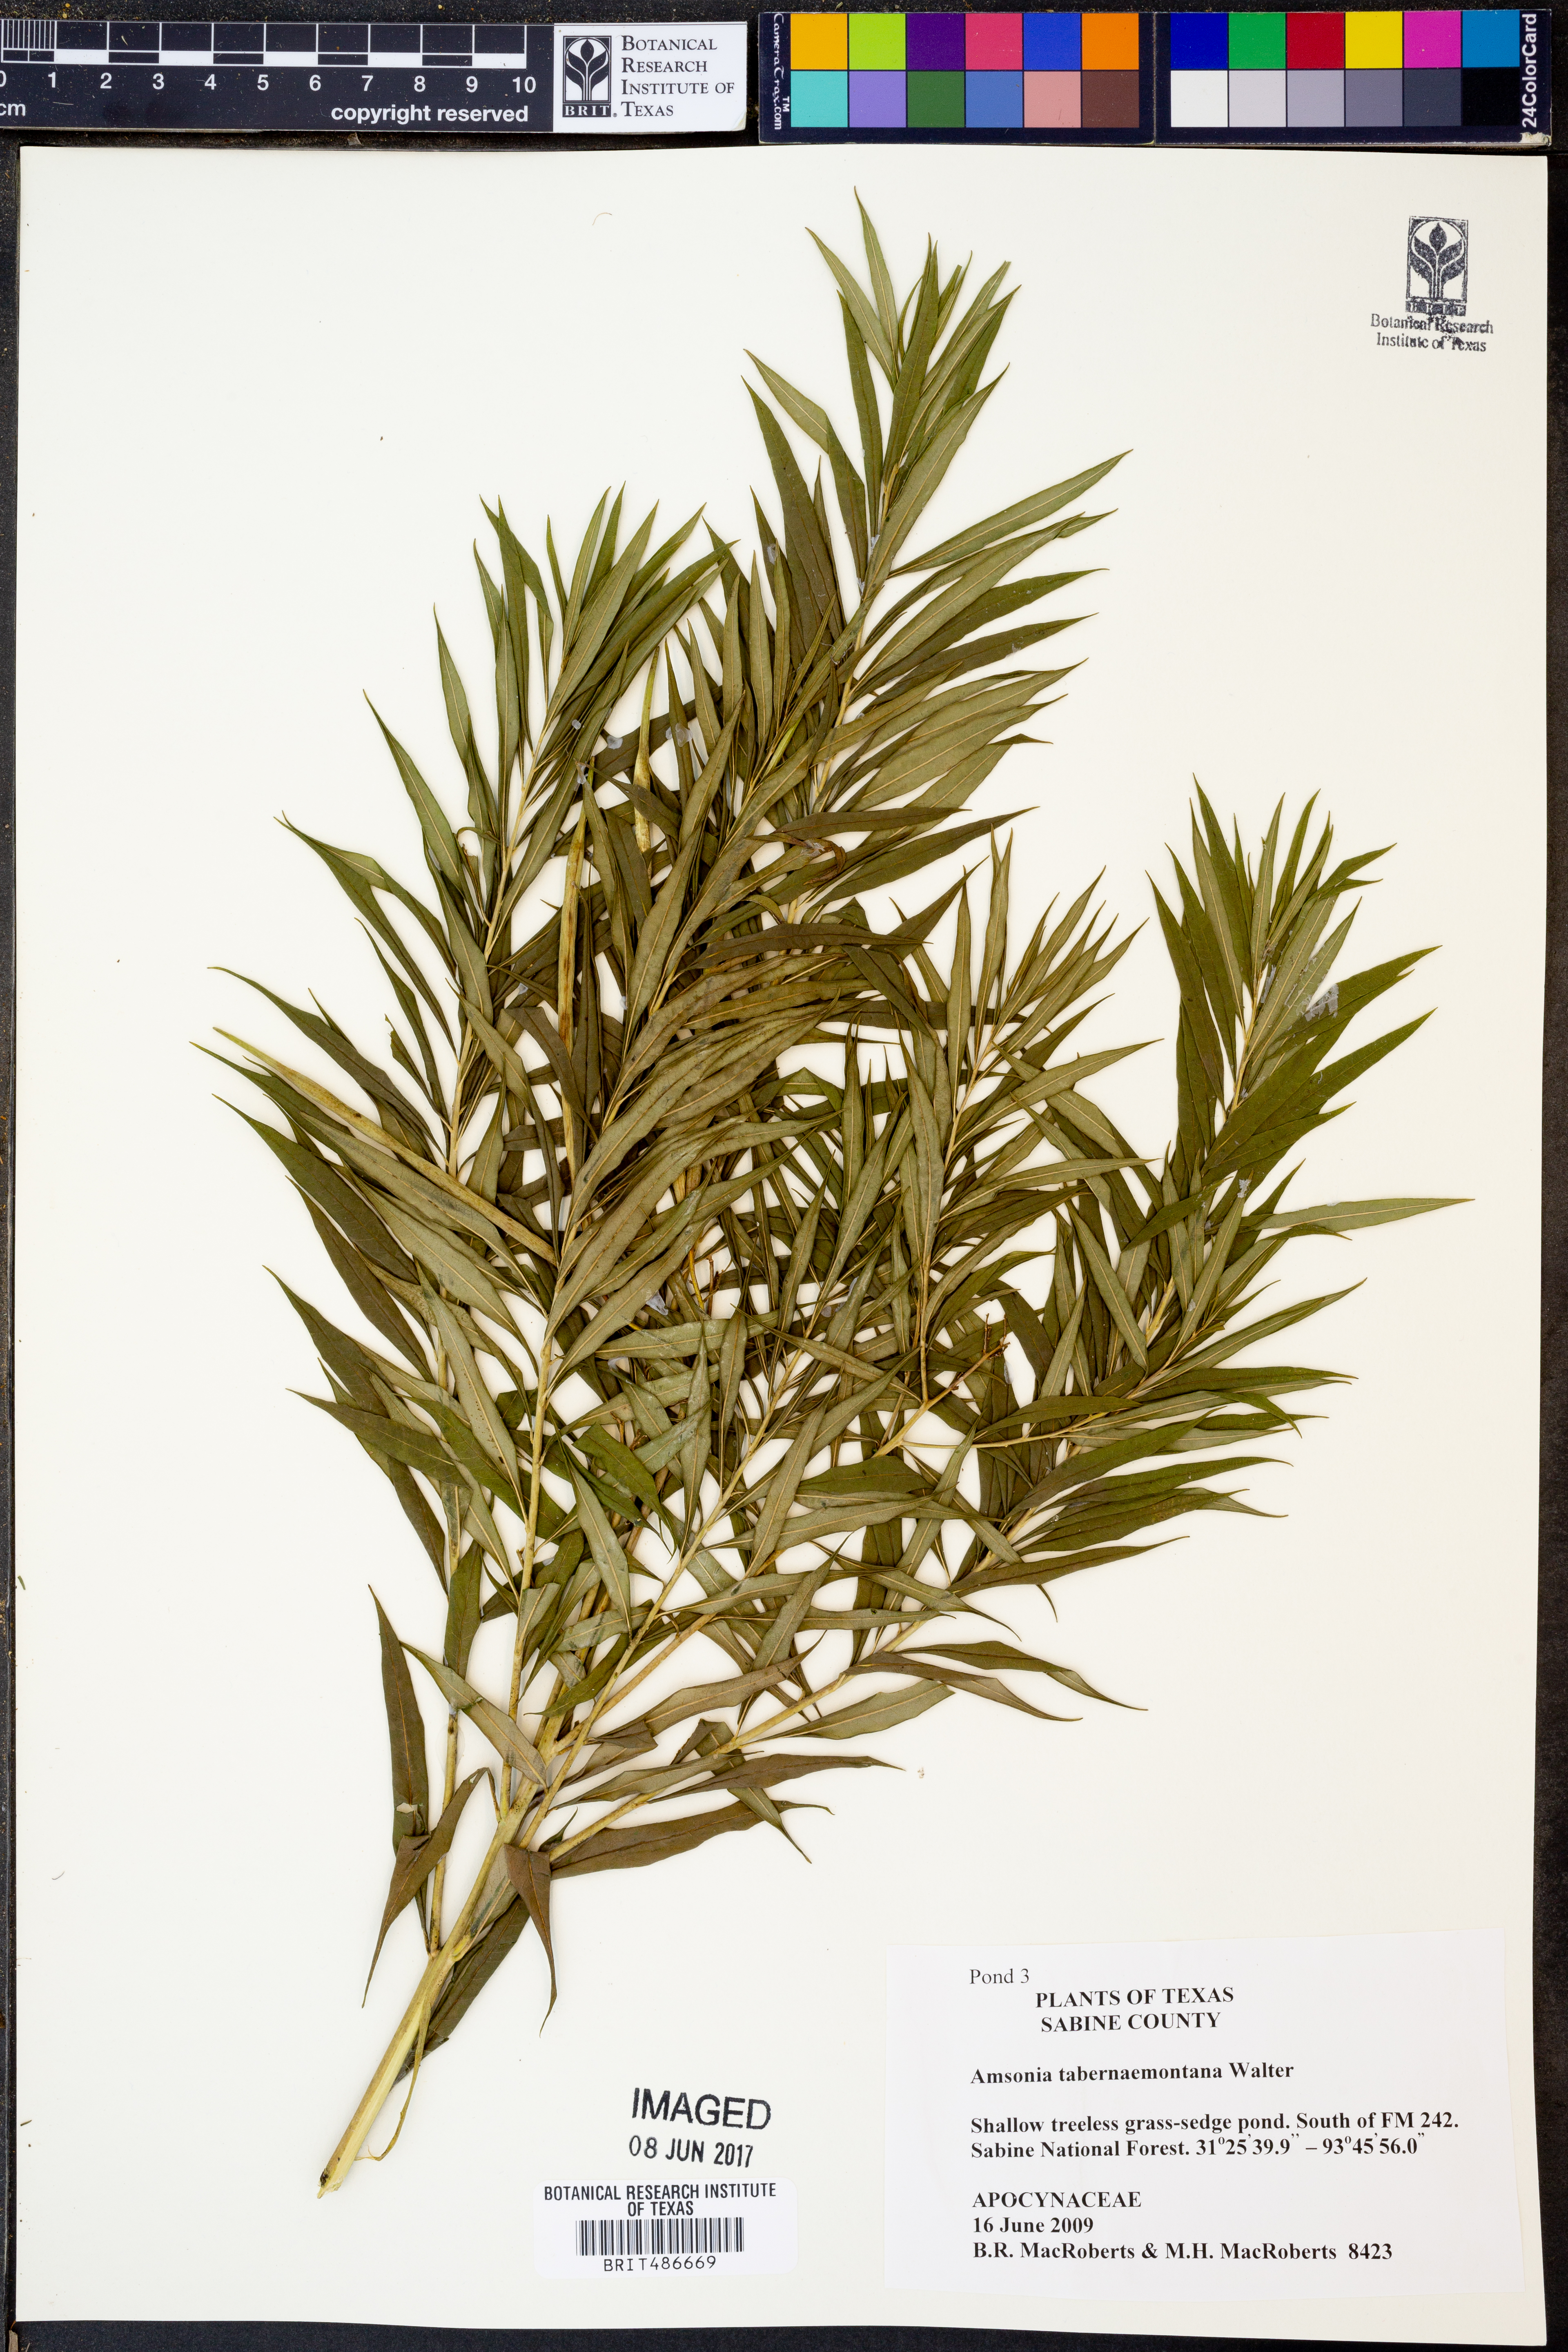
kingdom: Plantae
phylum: Tracheophyta
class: Magnoliopsida
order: Gentianales
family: Apocynaceae
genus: Amsonia
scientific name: Amsonia tabernaemontana
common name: Texas-star
